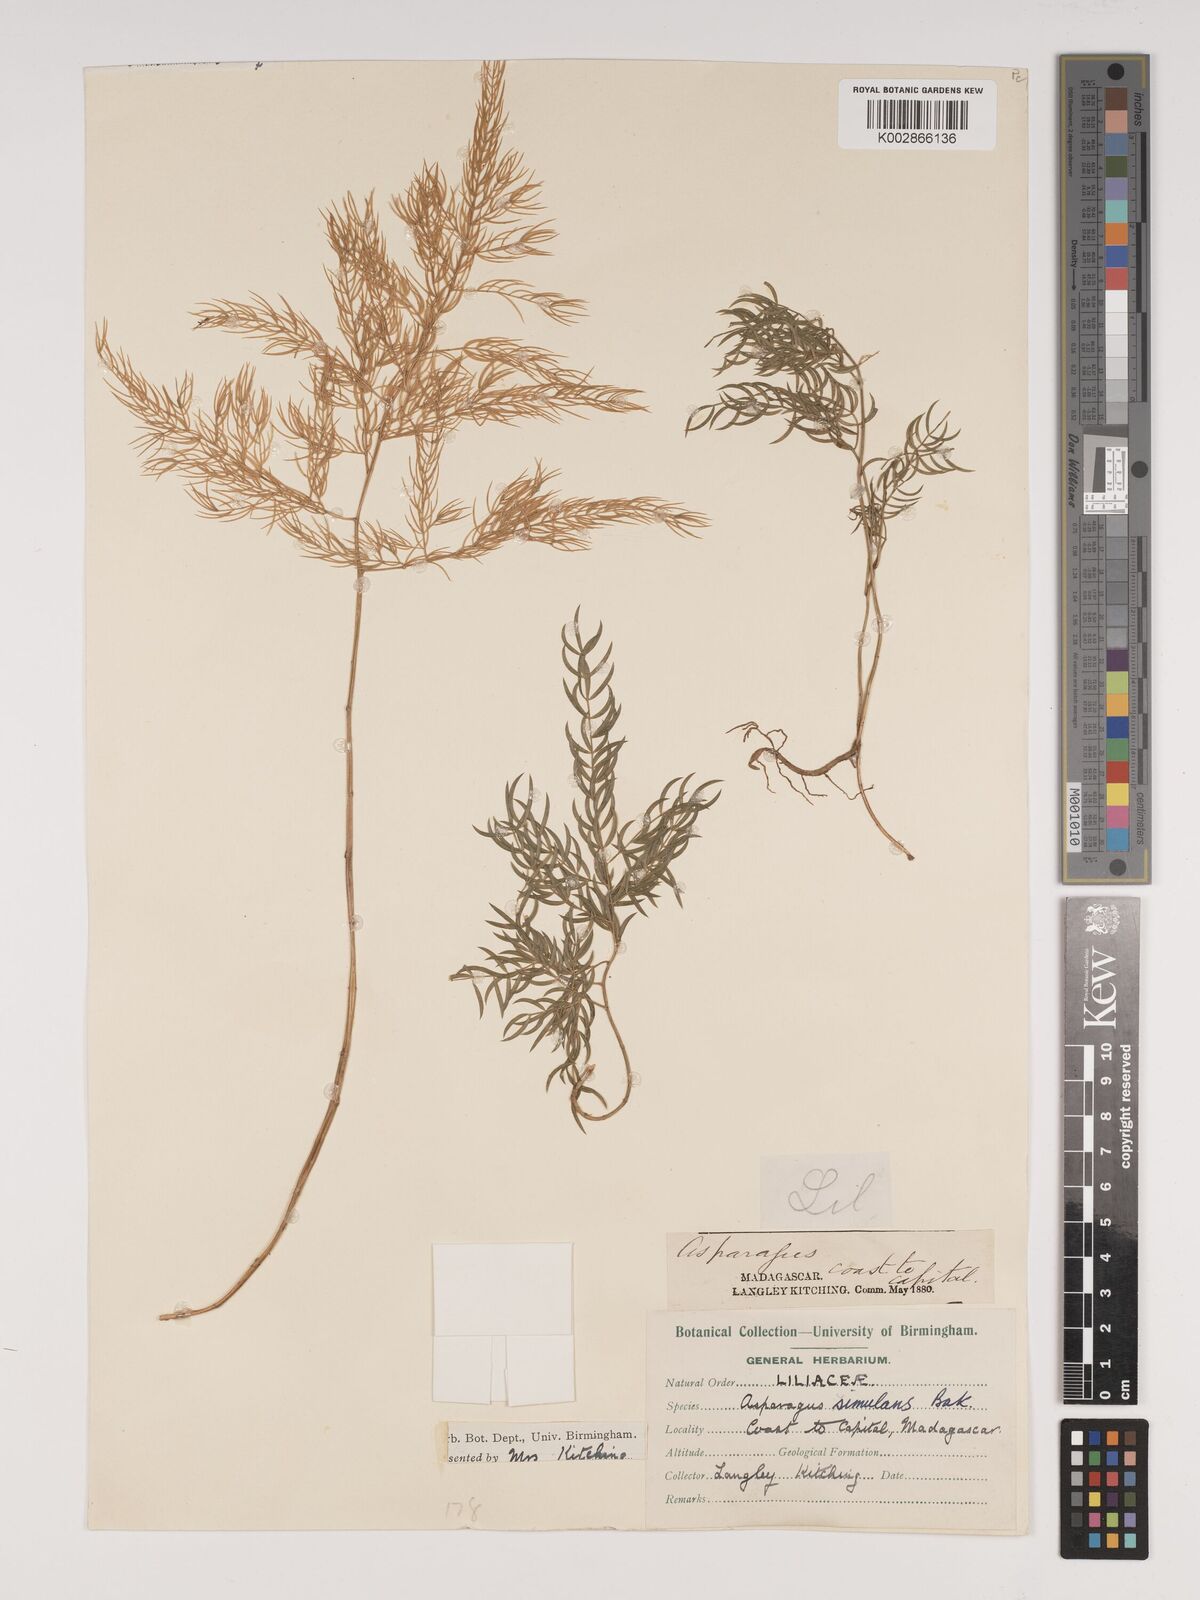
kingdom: Plantae
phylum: Tracheophyta
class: Liliopsida
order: Asparagales
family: Asparagaceae
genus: Asparagus
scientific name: Asparagus simulans
